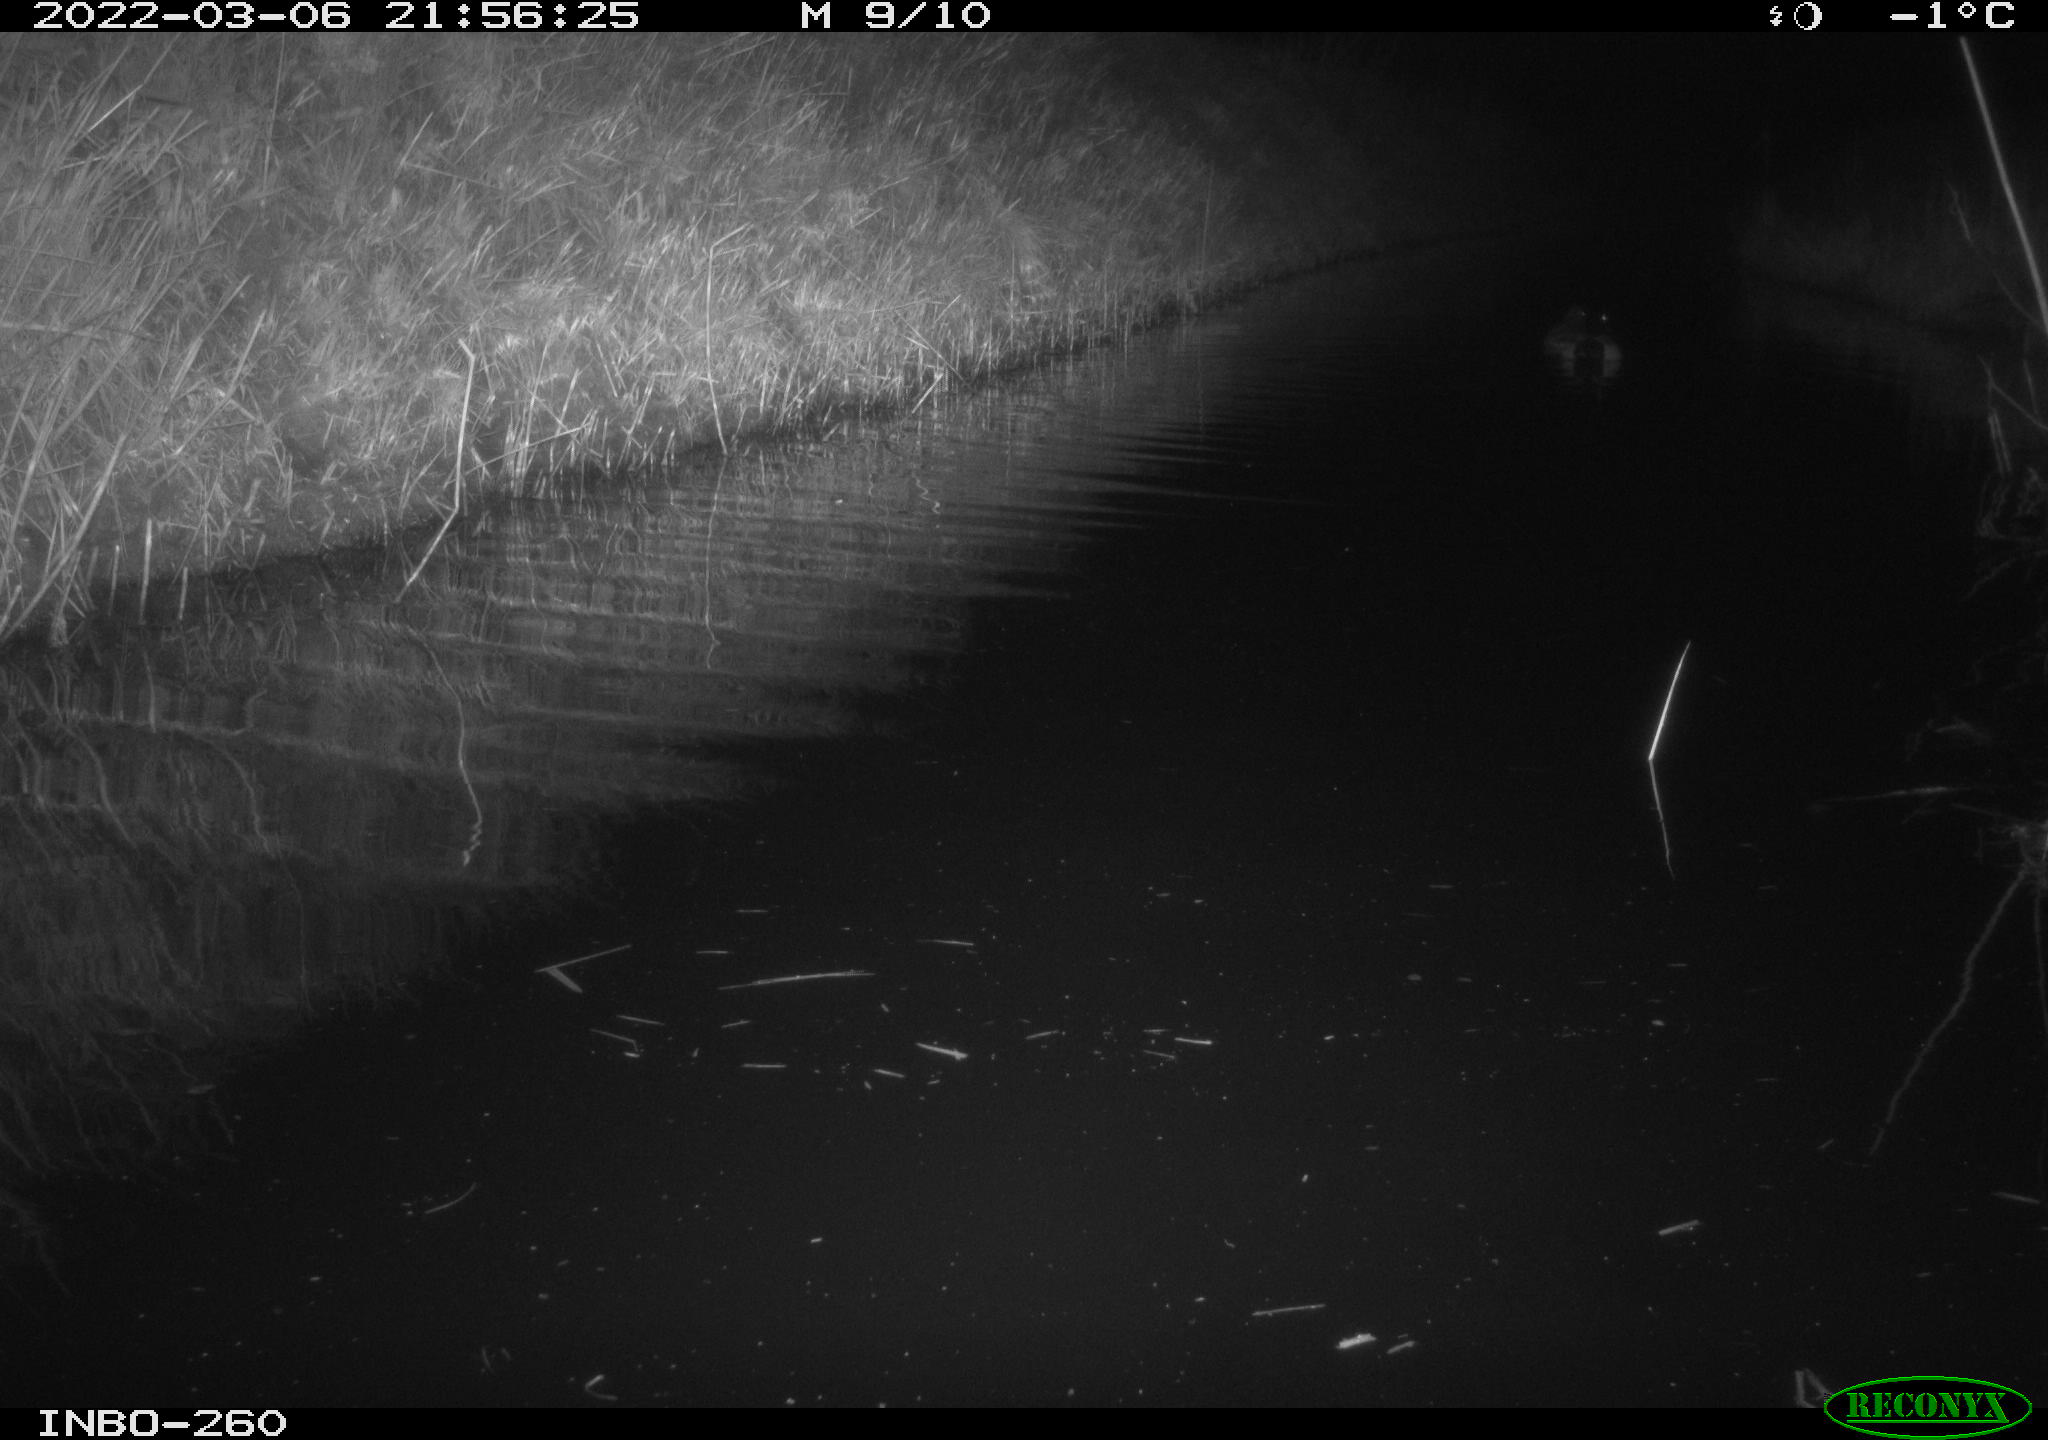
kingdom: Animalia
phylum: Chordata
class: Aves
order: Anseriformes
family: Anatidae
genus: Anas
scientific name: Anas platyrhynchos
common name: Mallard
